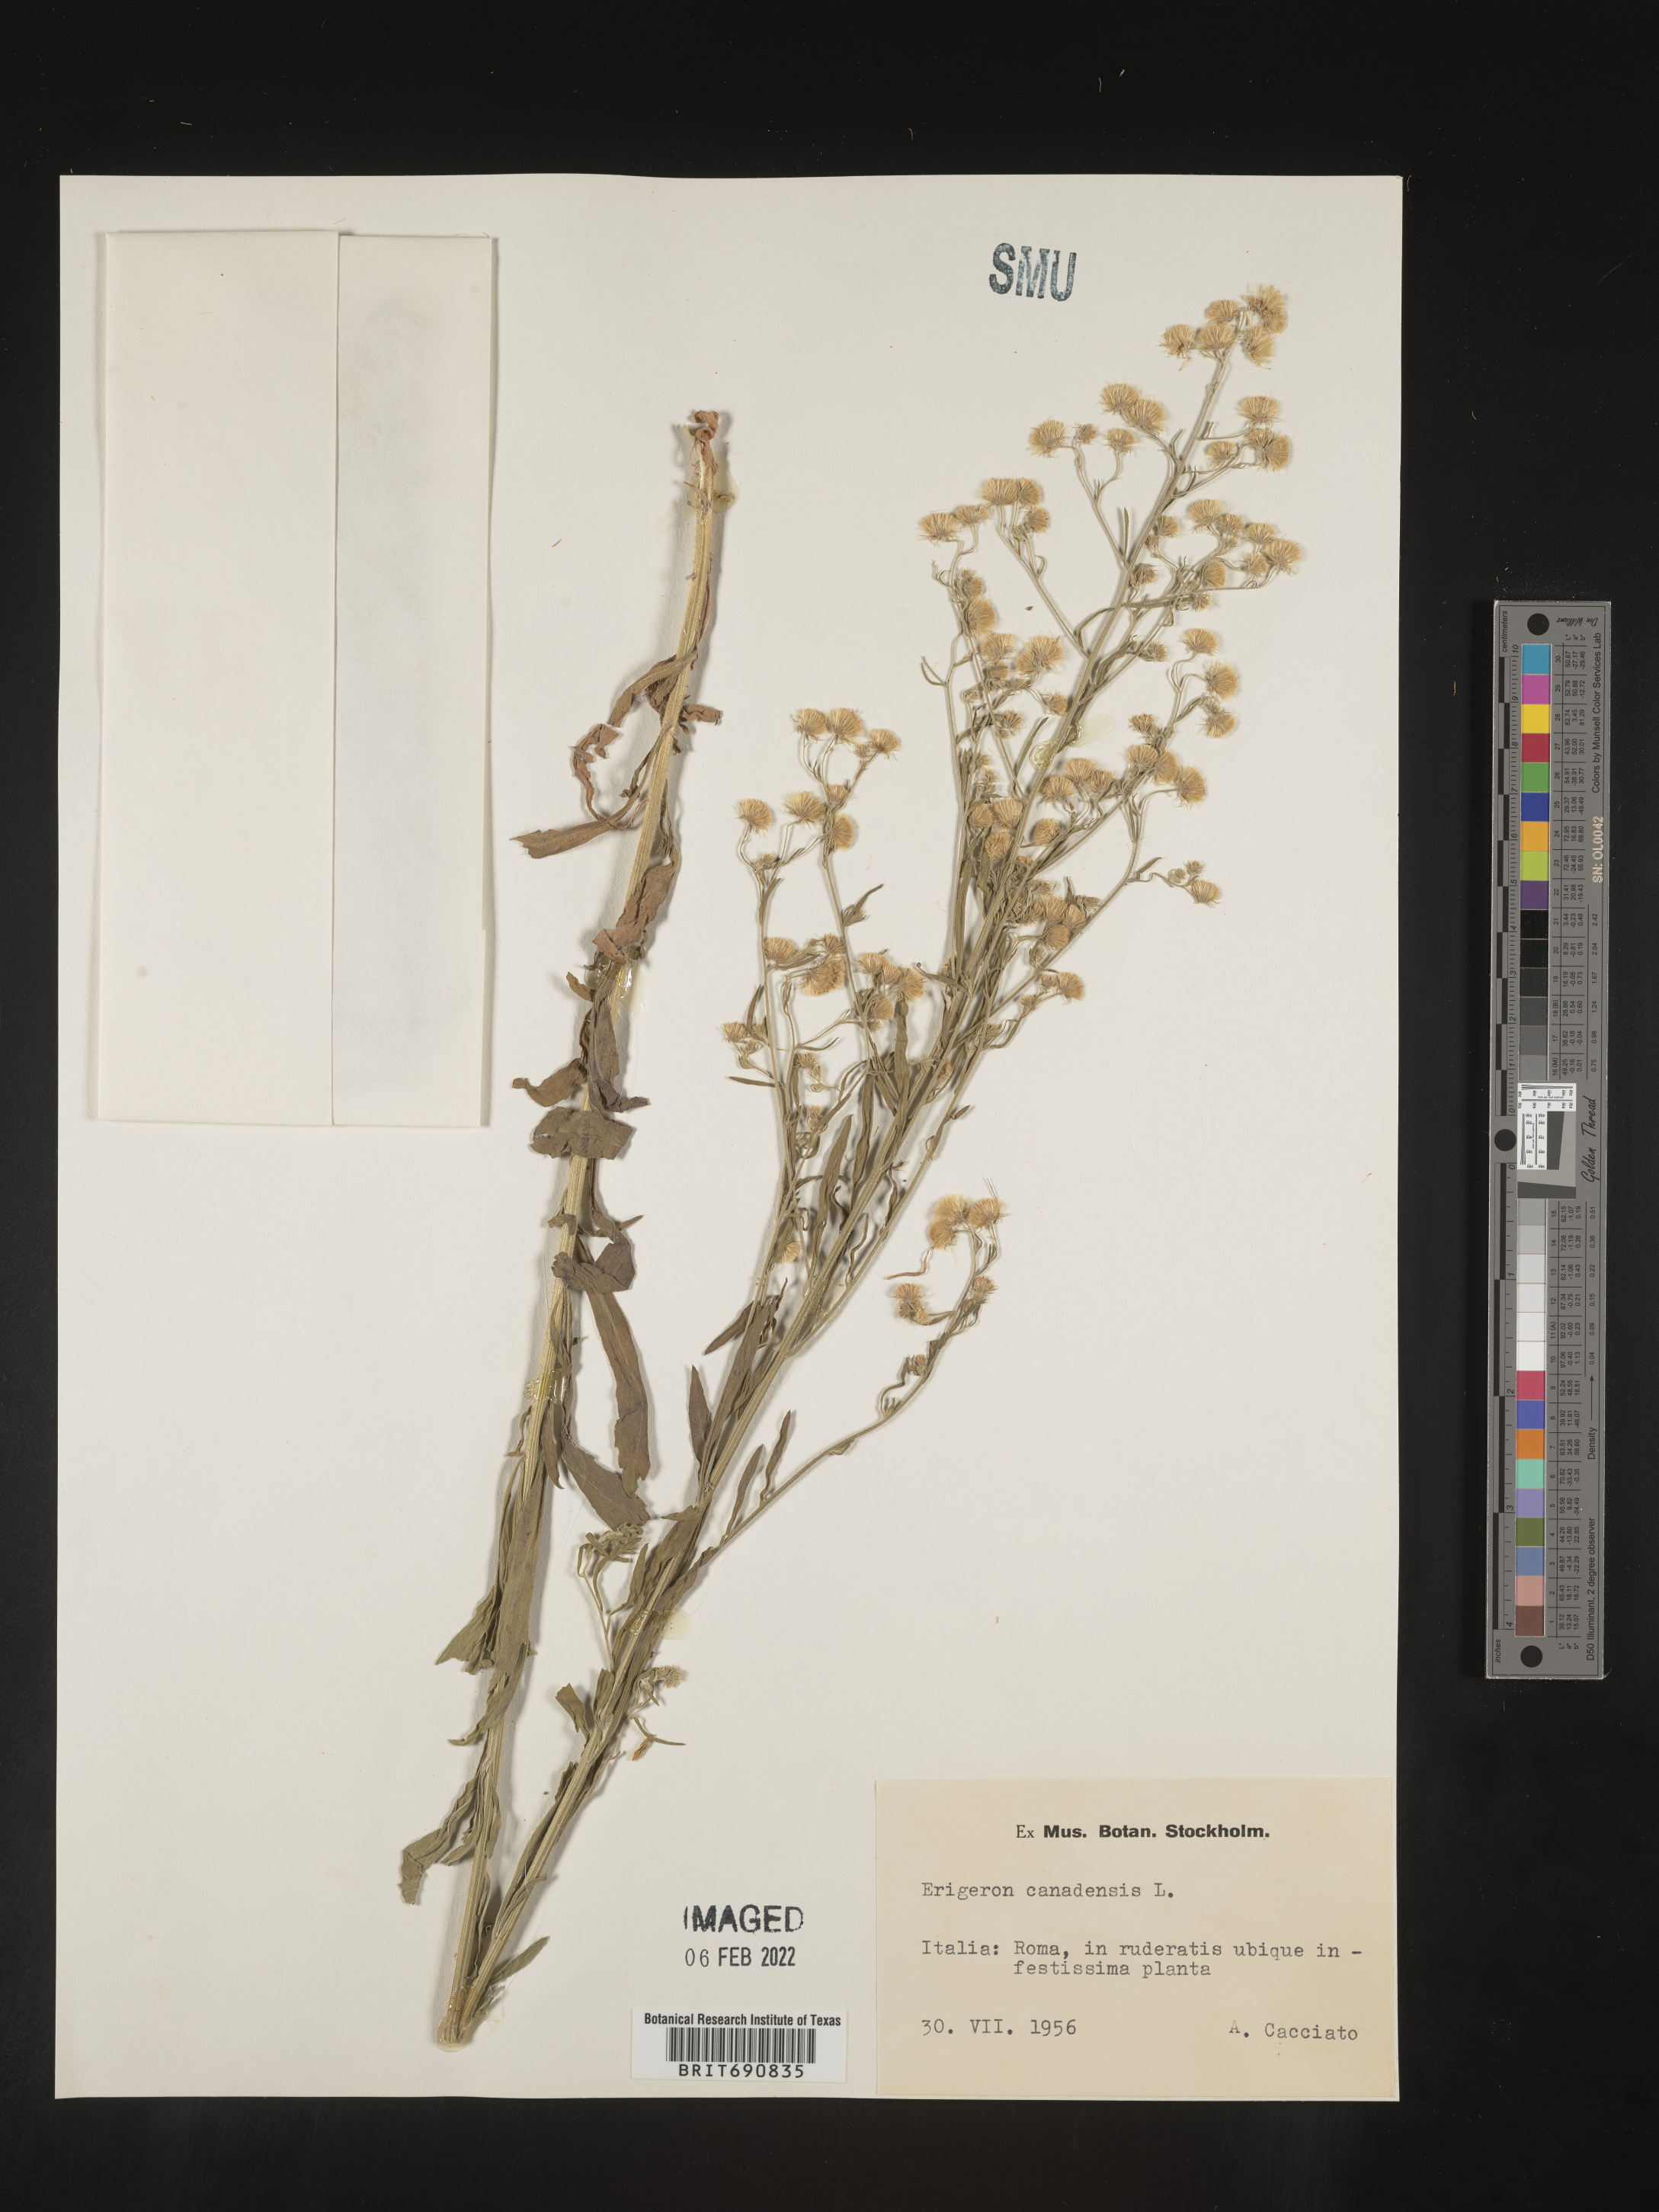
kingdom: Plantae
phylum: Tracheophyta
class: Magnoliopsida
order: Asterales
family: Asteraceae
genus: Conyza
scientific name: Conyza
